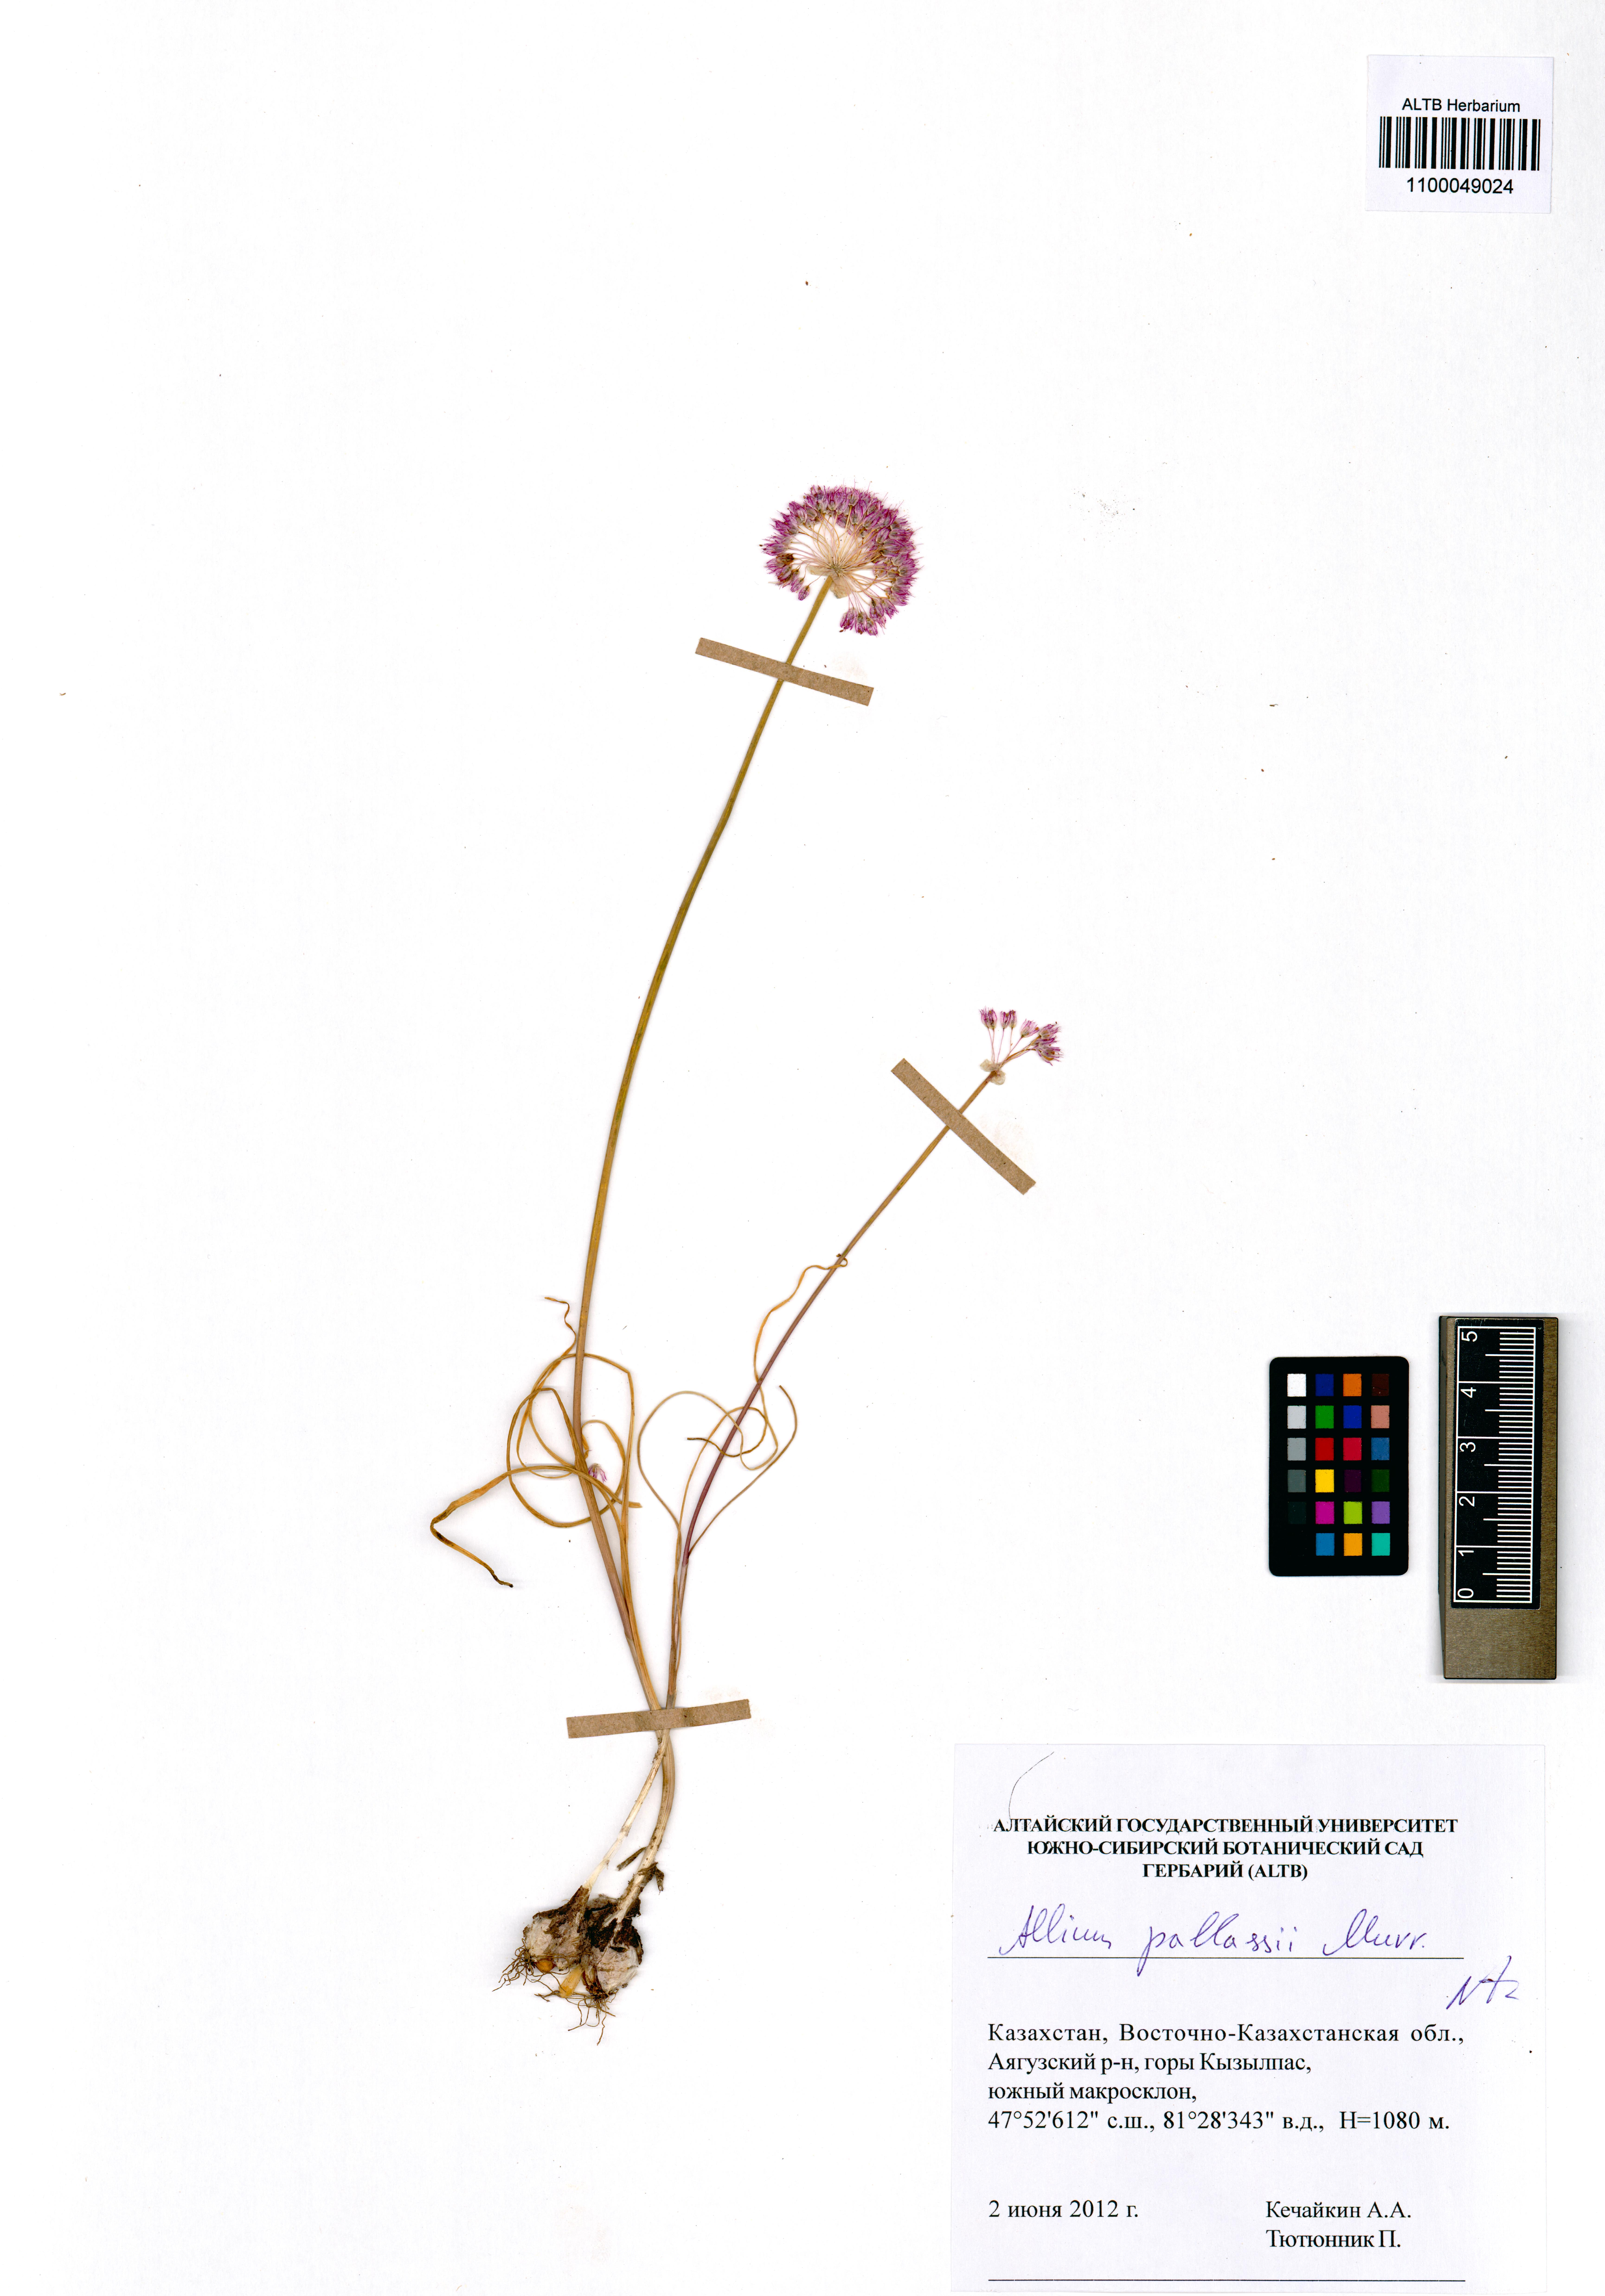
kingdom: Plantae
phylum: Tracheophyta
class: Liliopsida
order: Asparagales
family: Amaryllidaceae
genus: Allium
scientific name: Allium pallasii
